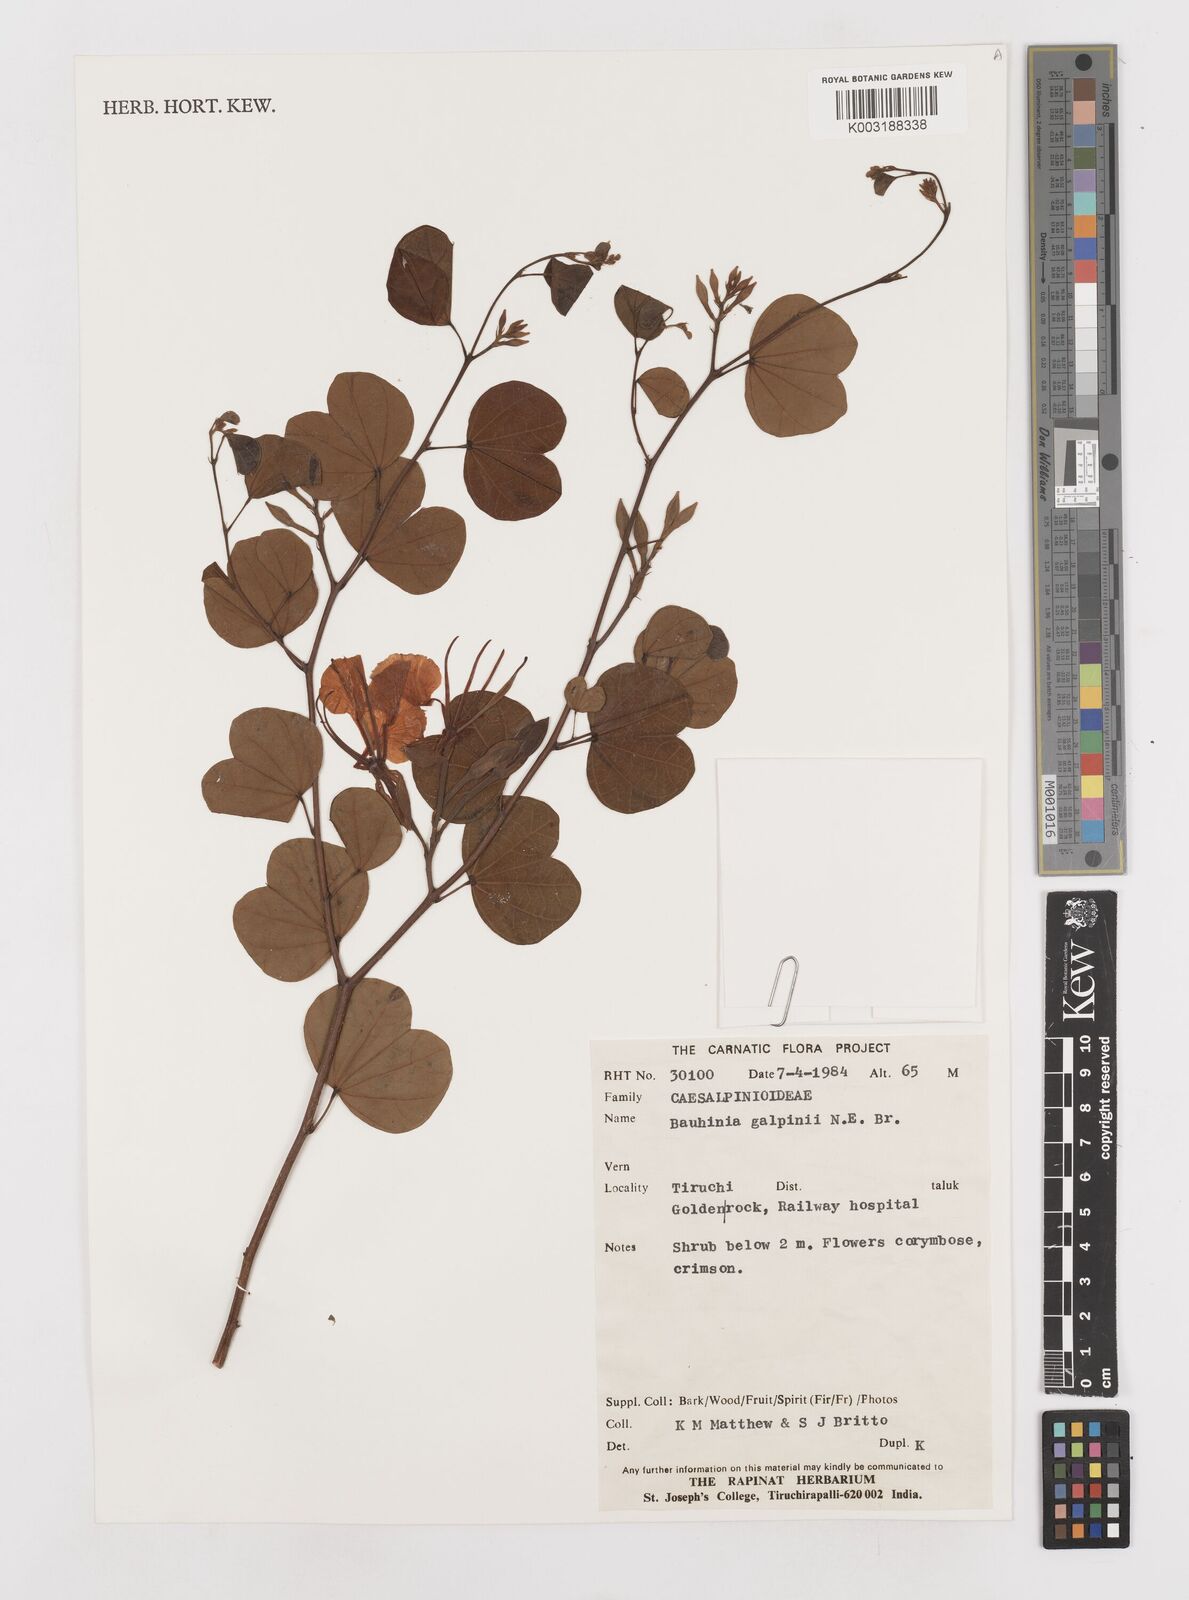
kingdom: Plantae
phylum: Tracheophyta
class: Magnoliopsida
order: Fabales
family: Fabaceae
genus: Bauhinia
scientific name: Bauhinia galpinii
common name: African plume
